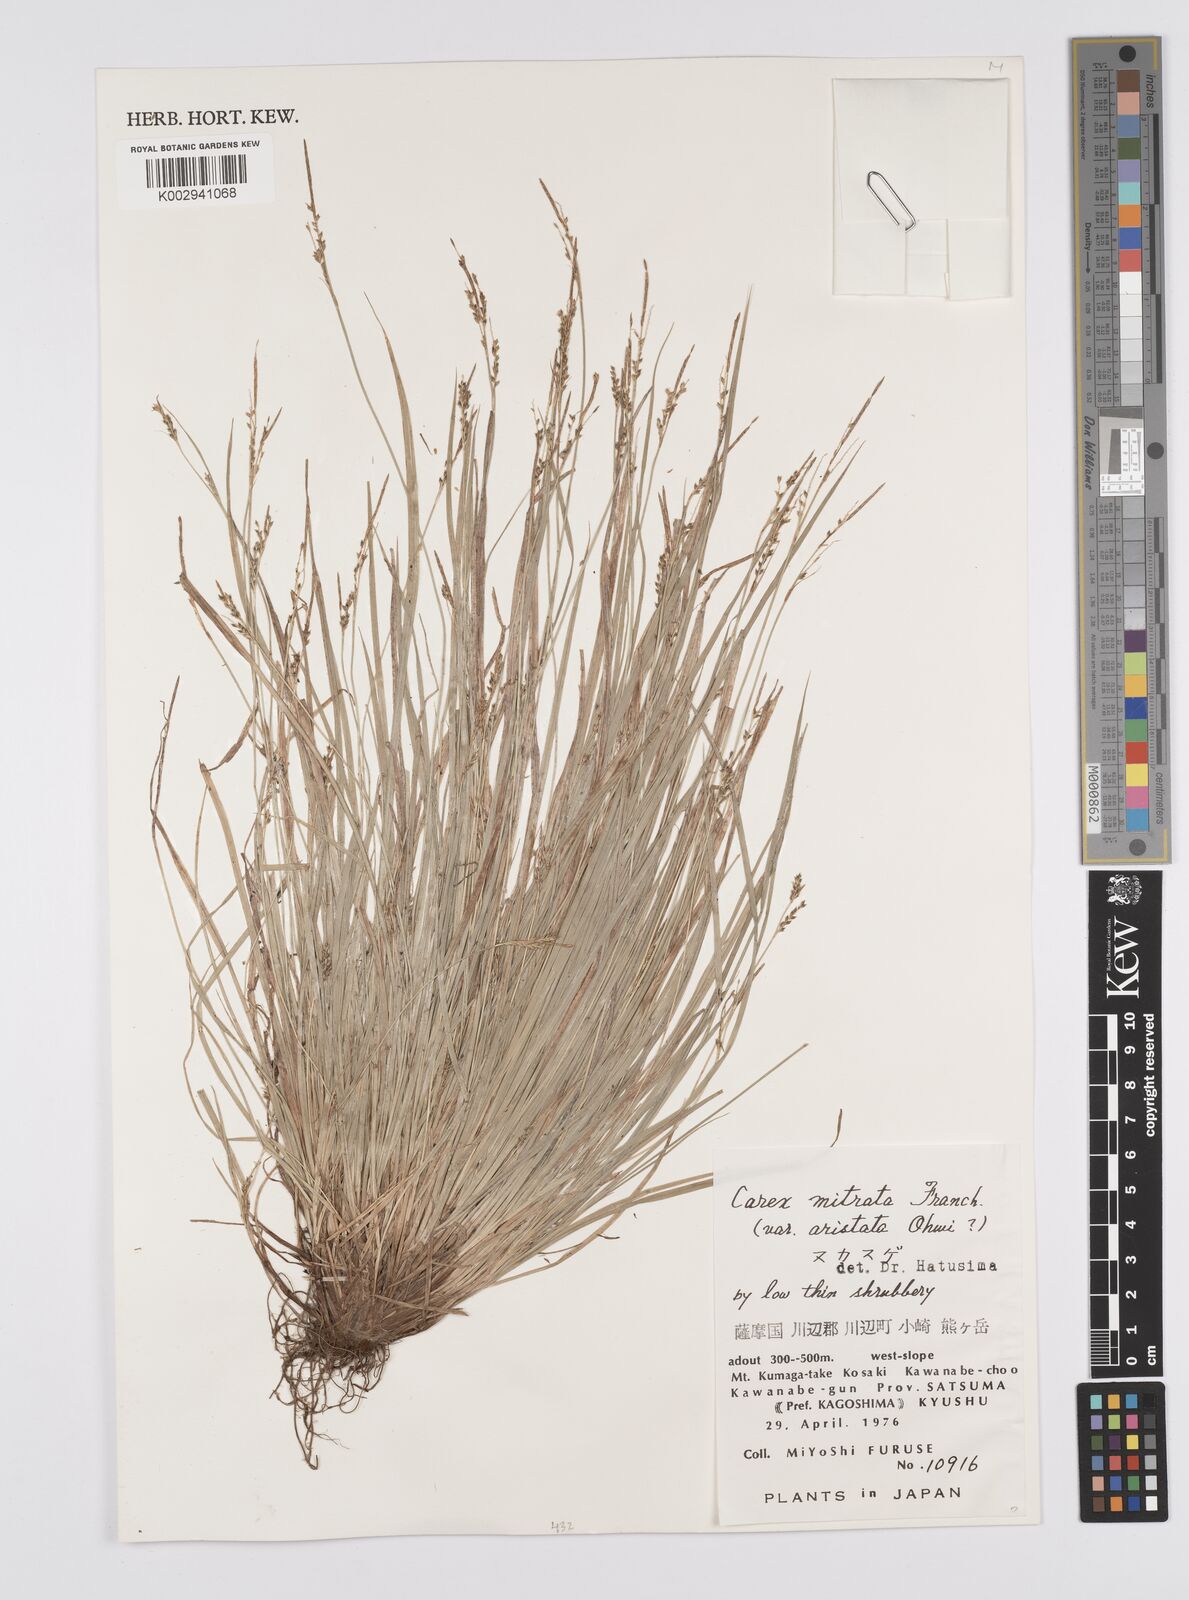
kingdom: Plantae
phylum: Tracheophyta
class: Liliopsida
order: Poales
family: Cyperaceae
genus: Carex
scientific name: Carex mitrata
